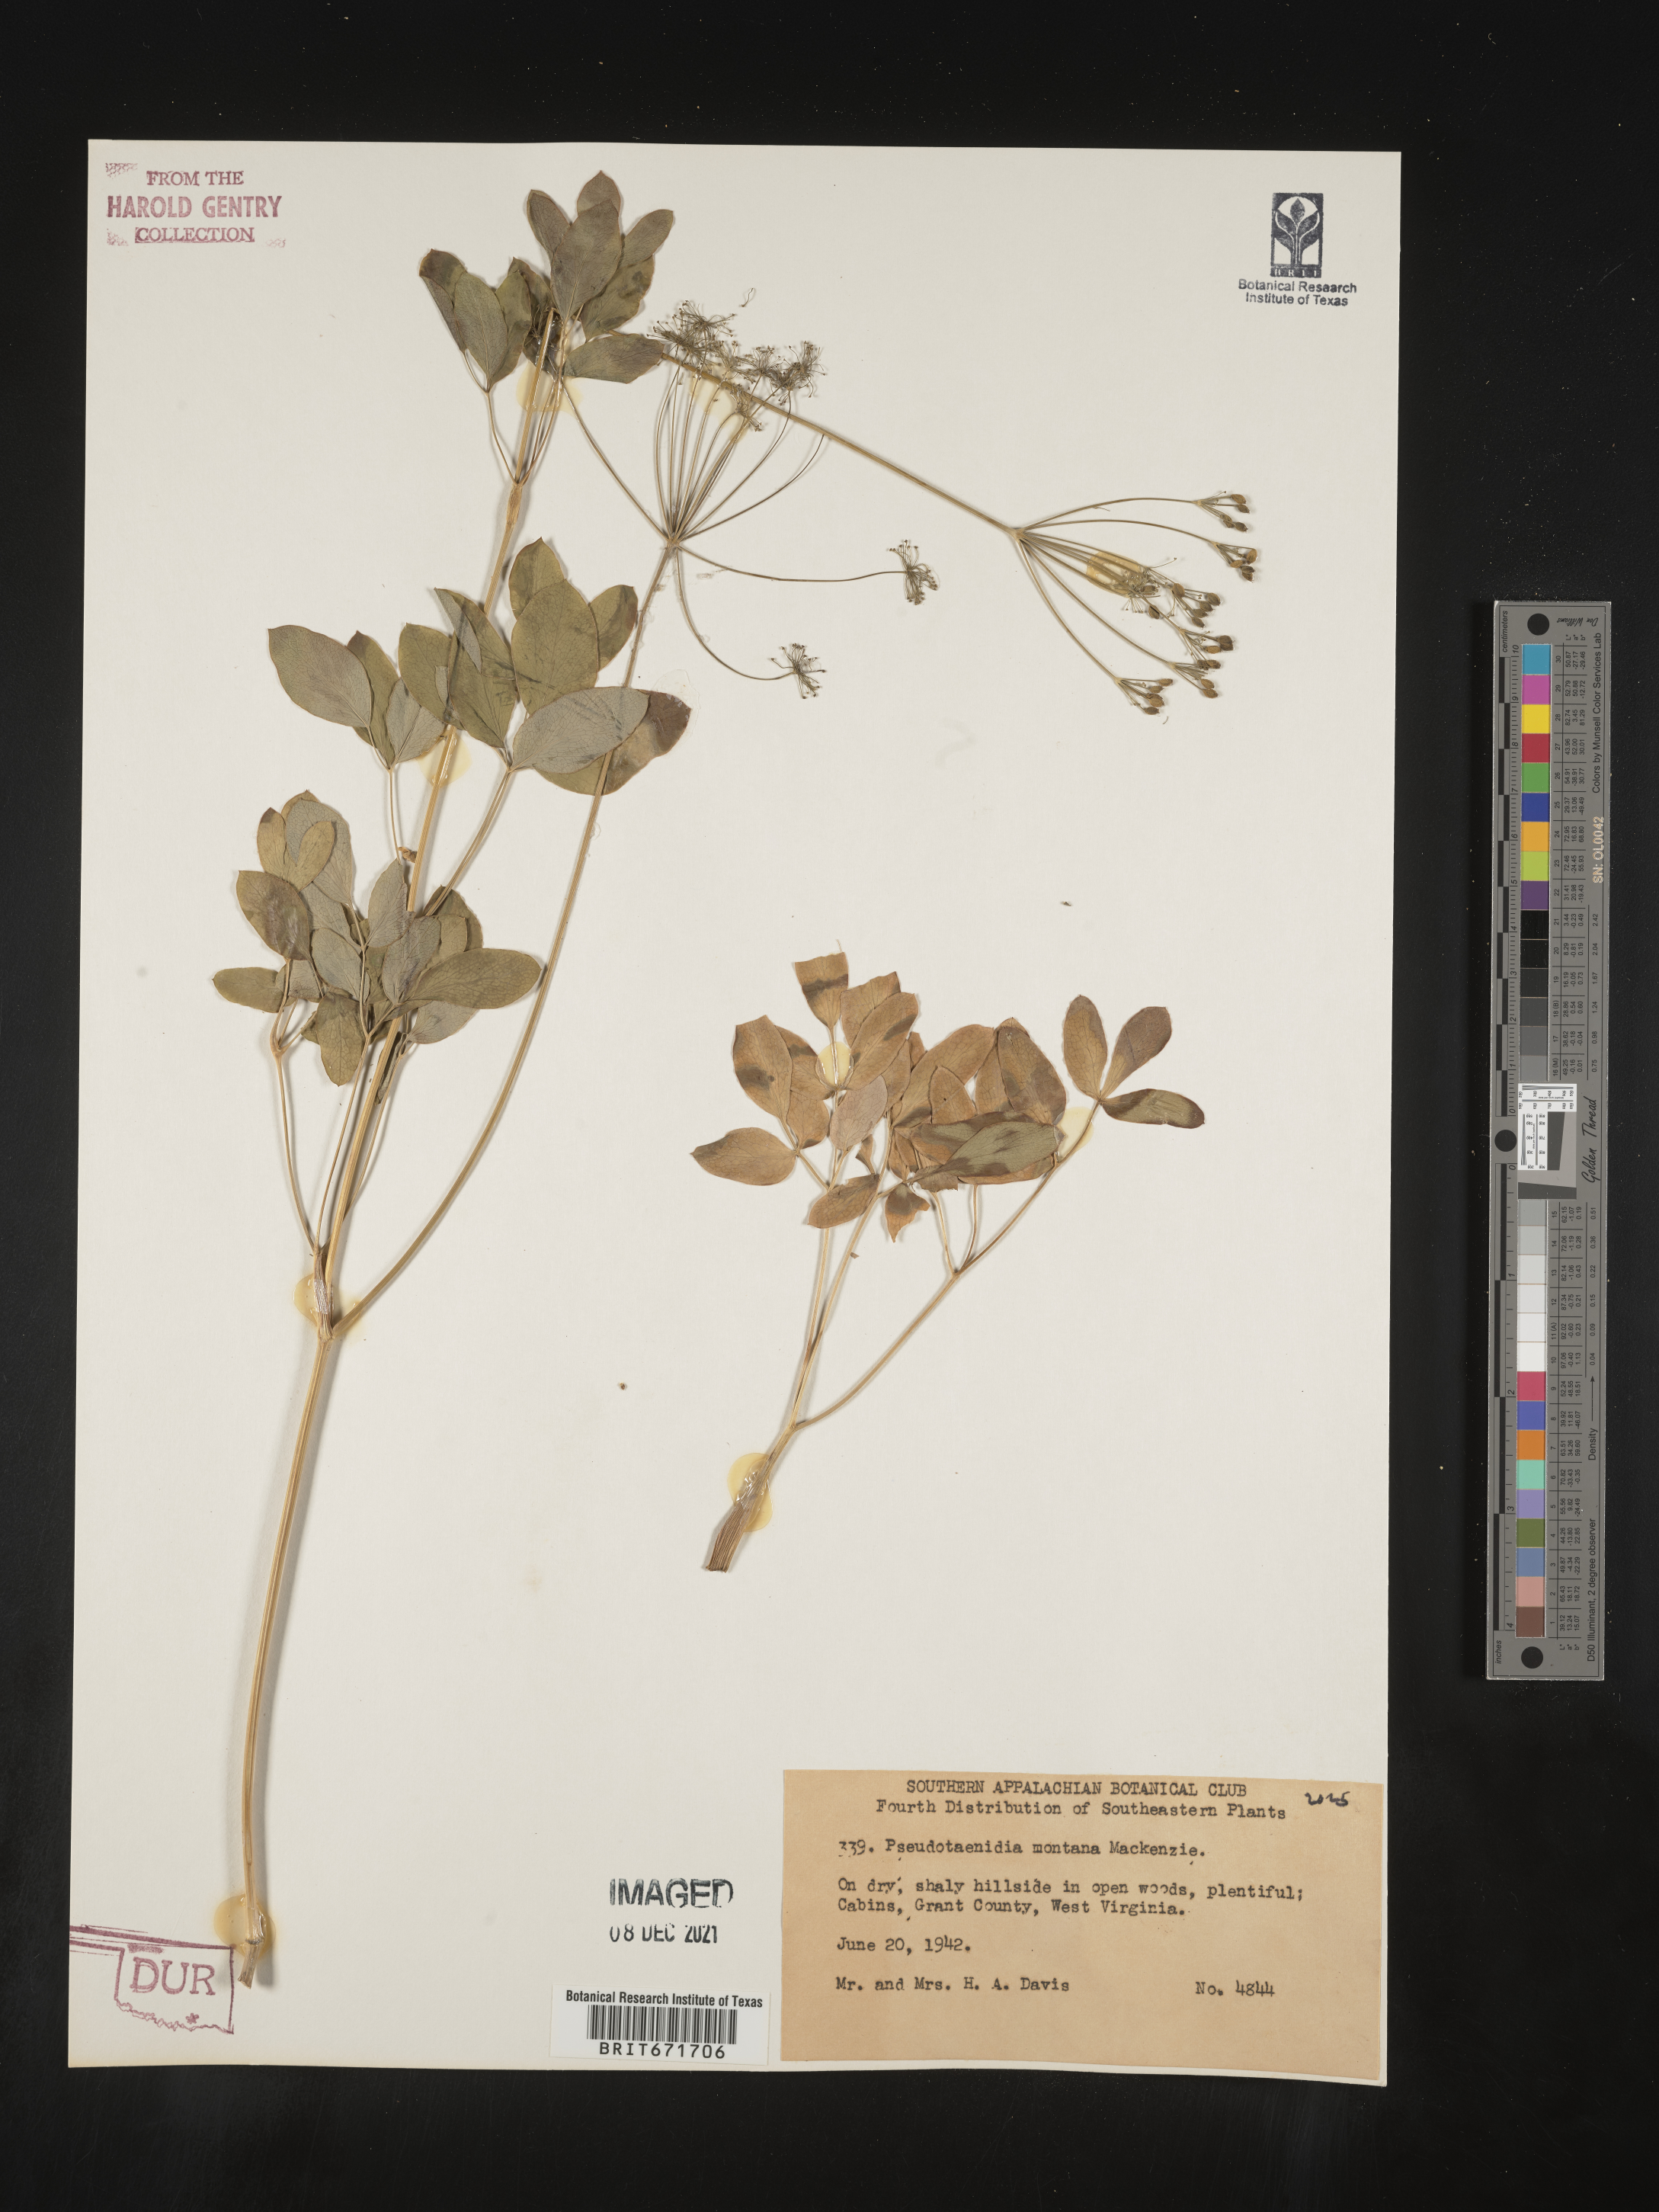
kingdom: Plantae
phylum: Tracheophyta
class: Magnoliopsida
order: Apiales
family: Apiaceae
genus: Taenidia
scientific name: Taenidia
